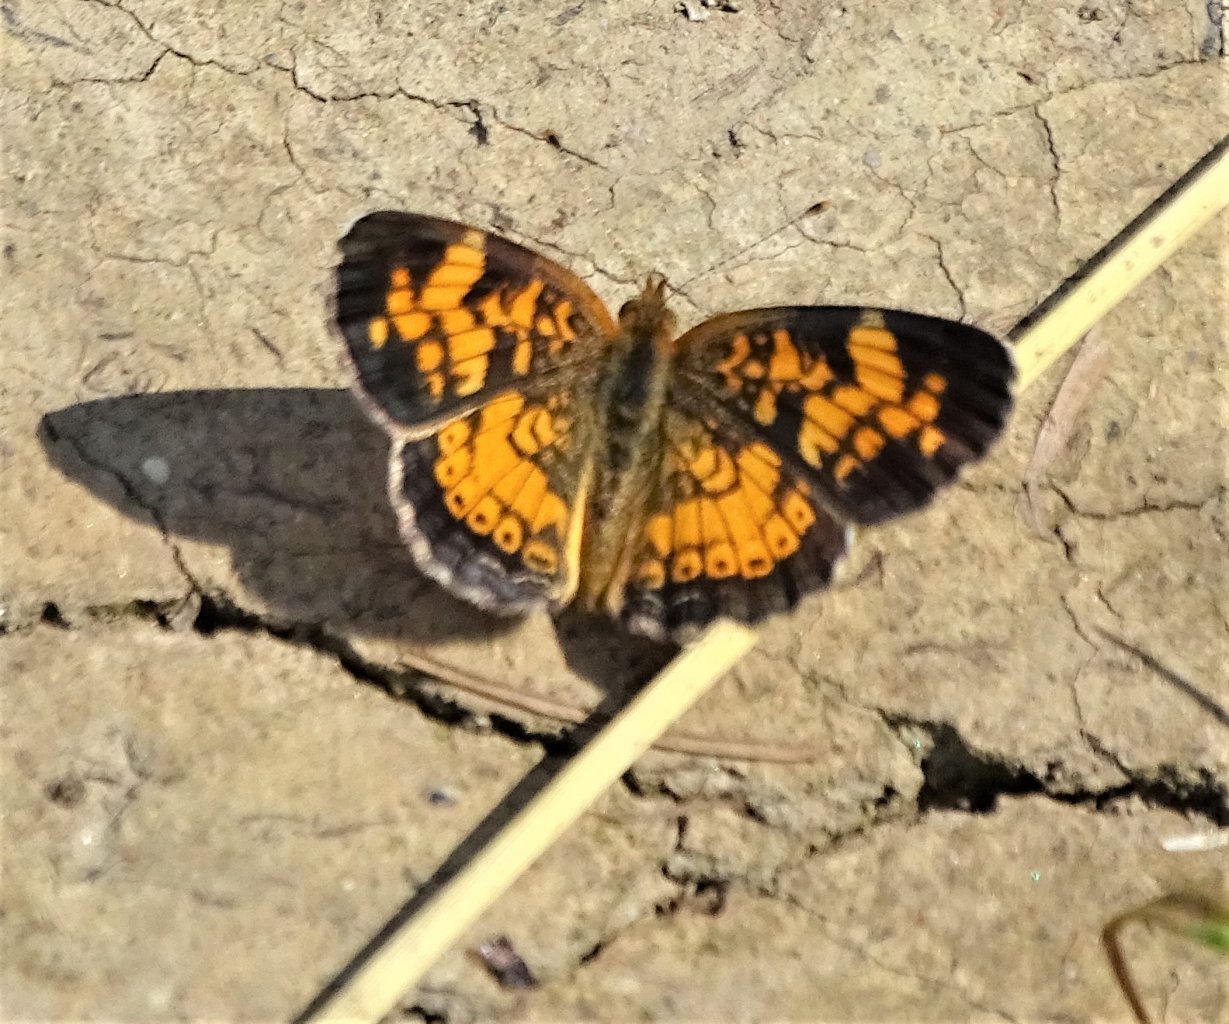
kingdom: Animalia
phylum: Arthropoda
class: Insecta
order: Lepidoptera
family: Nymphalidae
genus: Phyciodes
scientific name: Phyciodes
